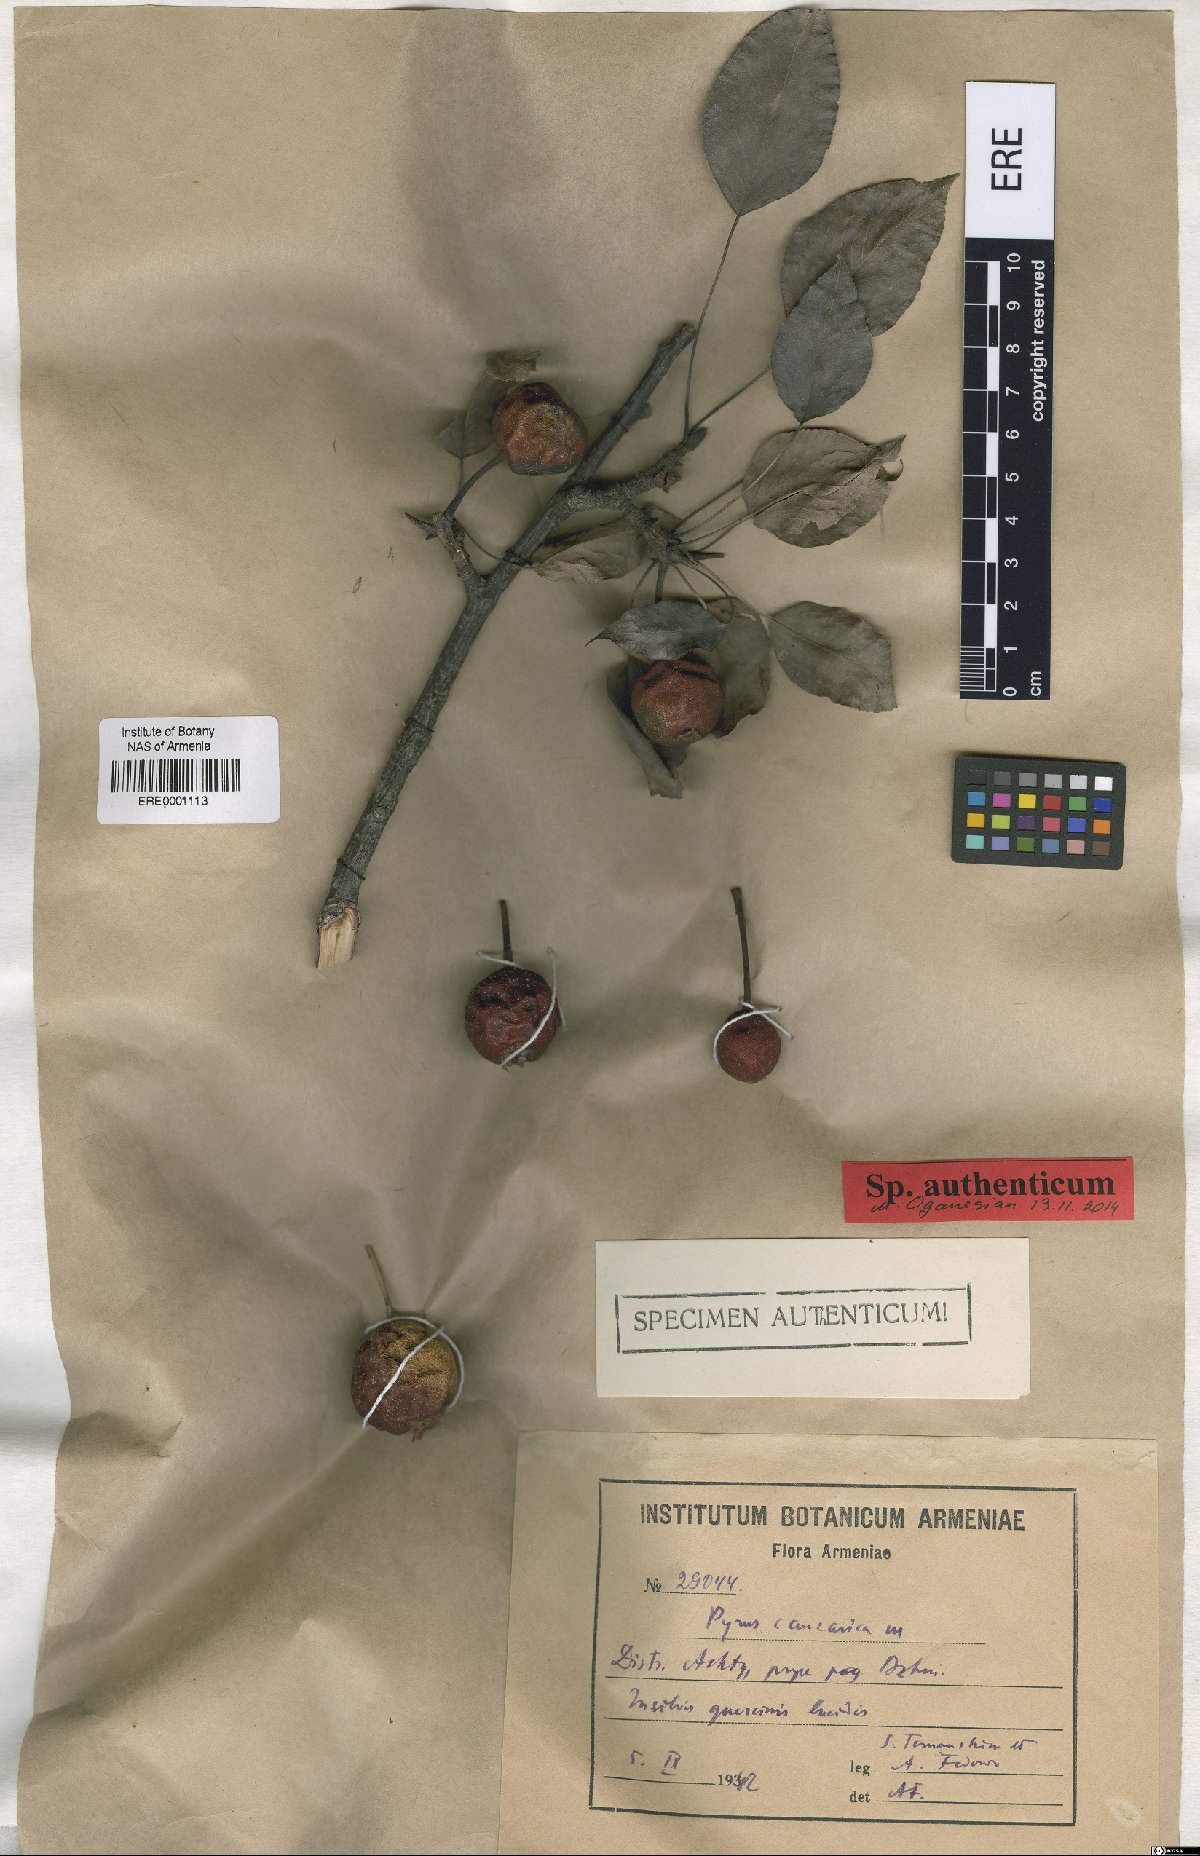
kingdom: Plantae
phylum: Tracheophyta
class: Magnoliopsida
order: Rosales
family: Rosaceae
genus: Pyrus
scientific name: Pyrus communis
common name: Pear
